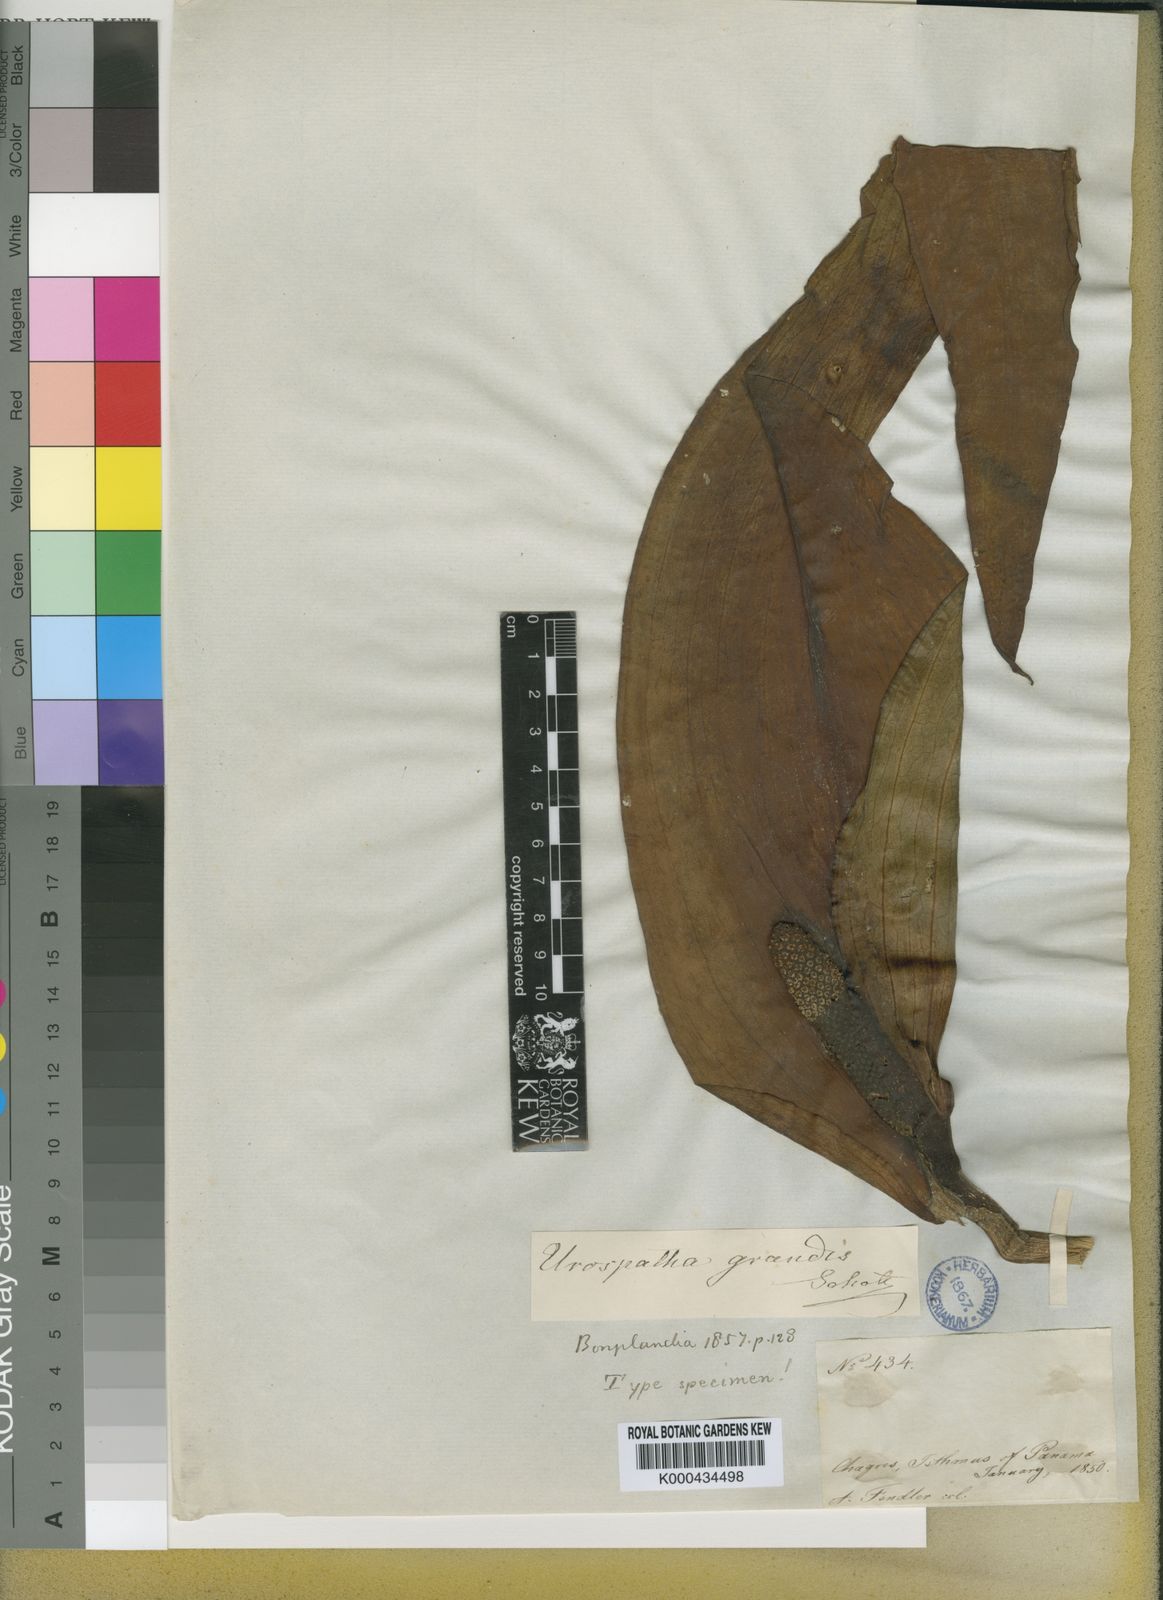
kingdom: Plantae
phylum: Tracheophyta
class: Liliopsida
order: Alismatales
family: Araceae
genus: Urospatha
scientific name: Urospatha grandis
